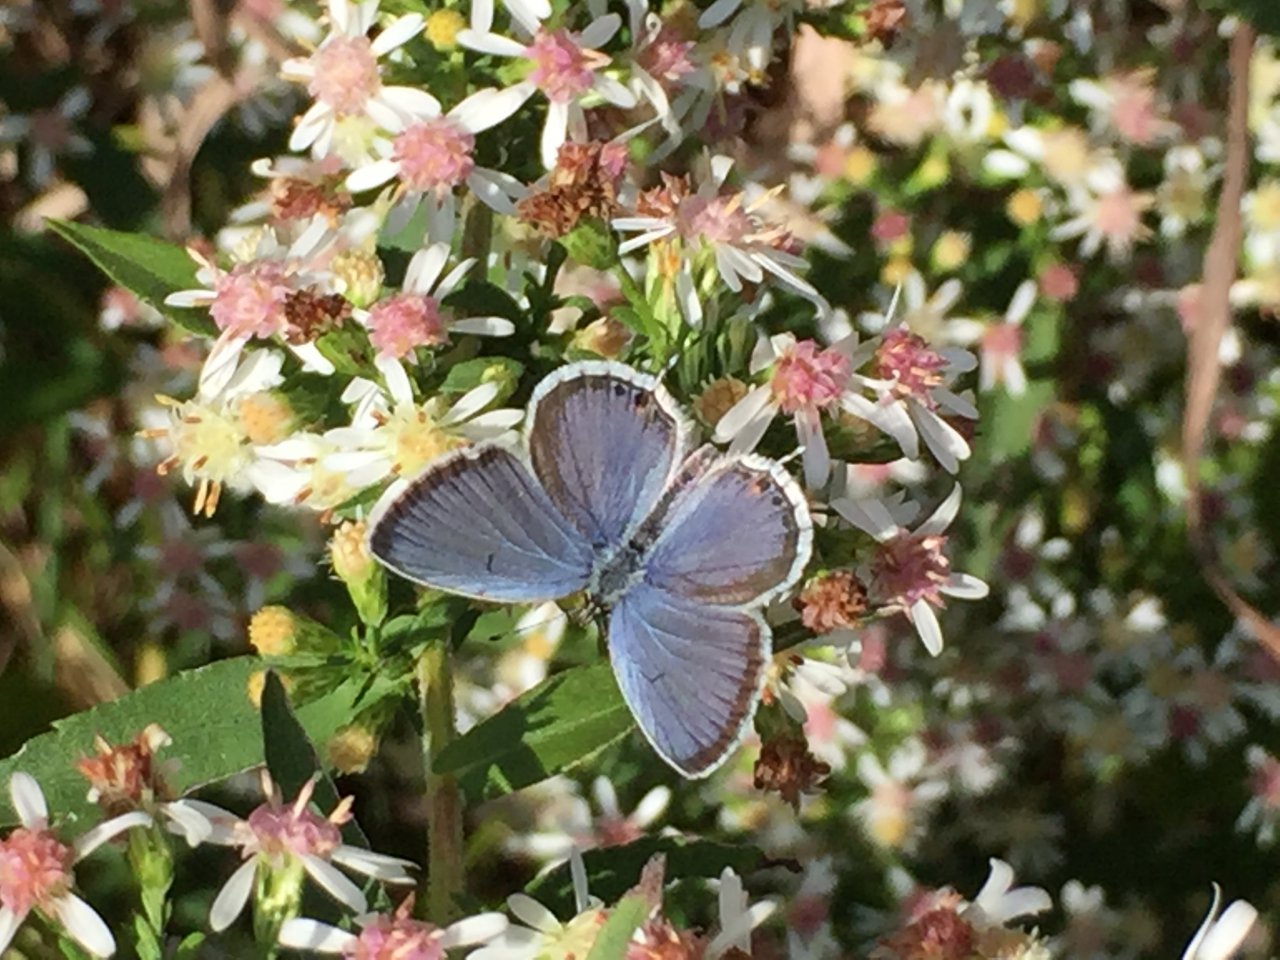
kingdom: Animalia
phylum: Arthropoda
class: Insecta
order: Lepidoptera
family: Lycaenidae
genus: Elkalyce
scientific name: Elkalyce comyntas
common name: Eastern Tailed-Blue
